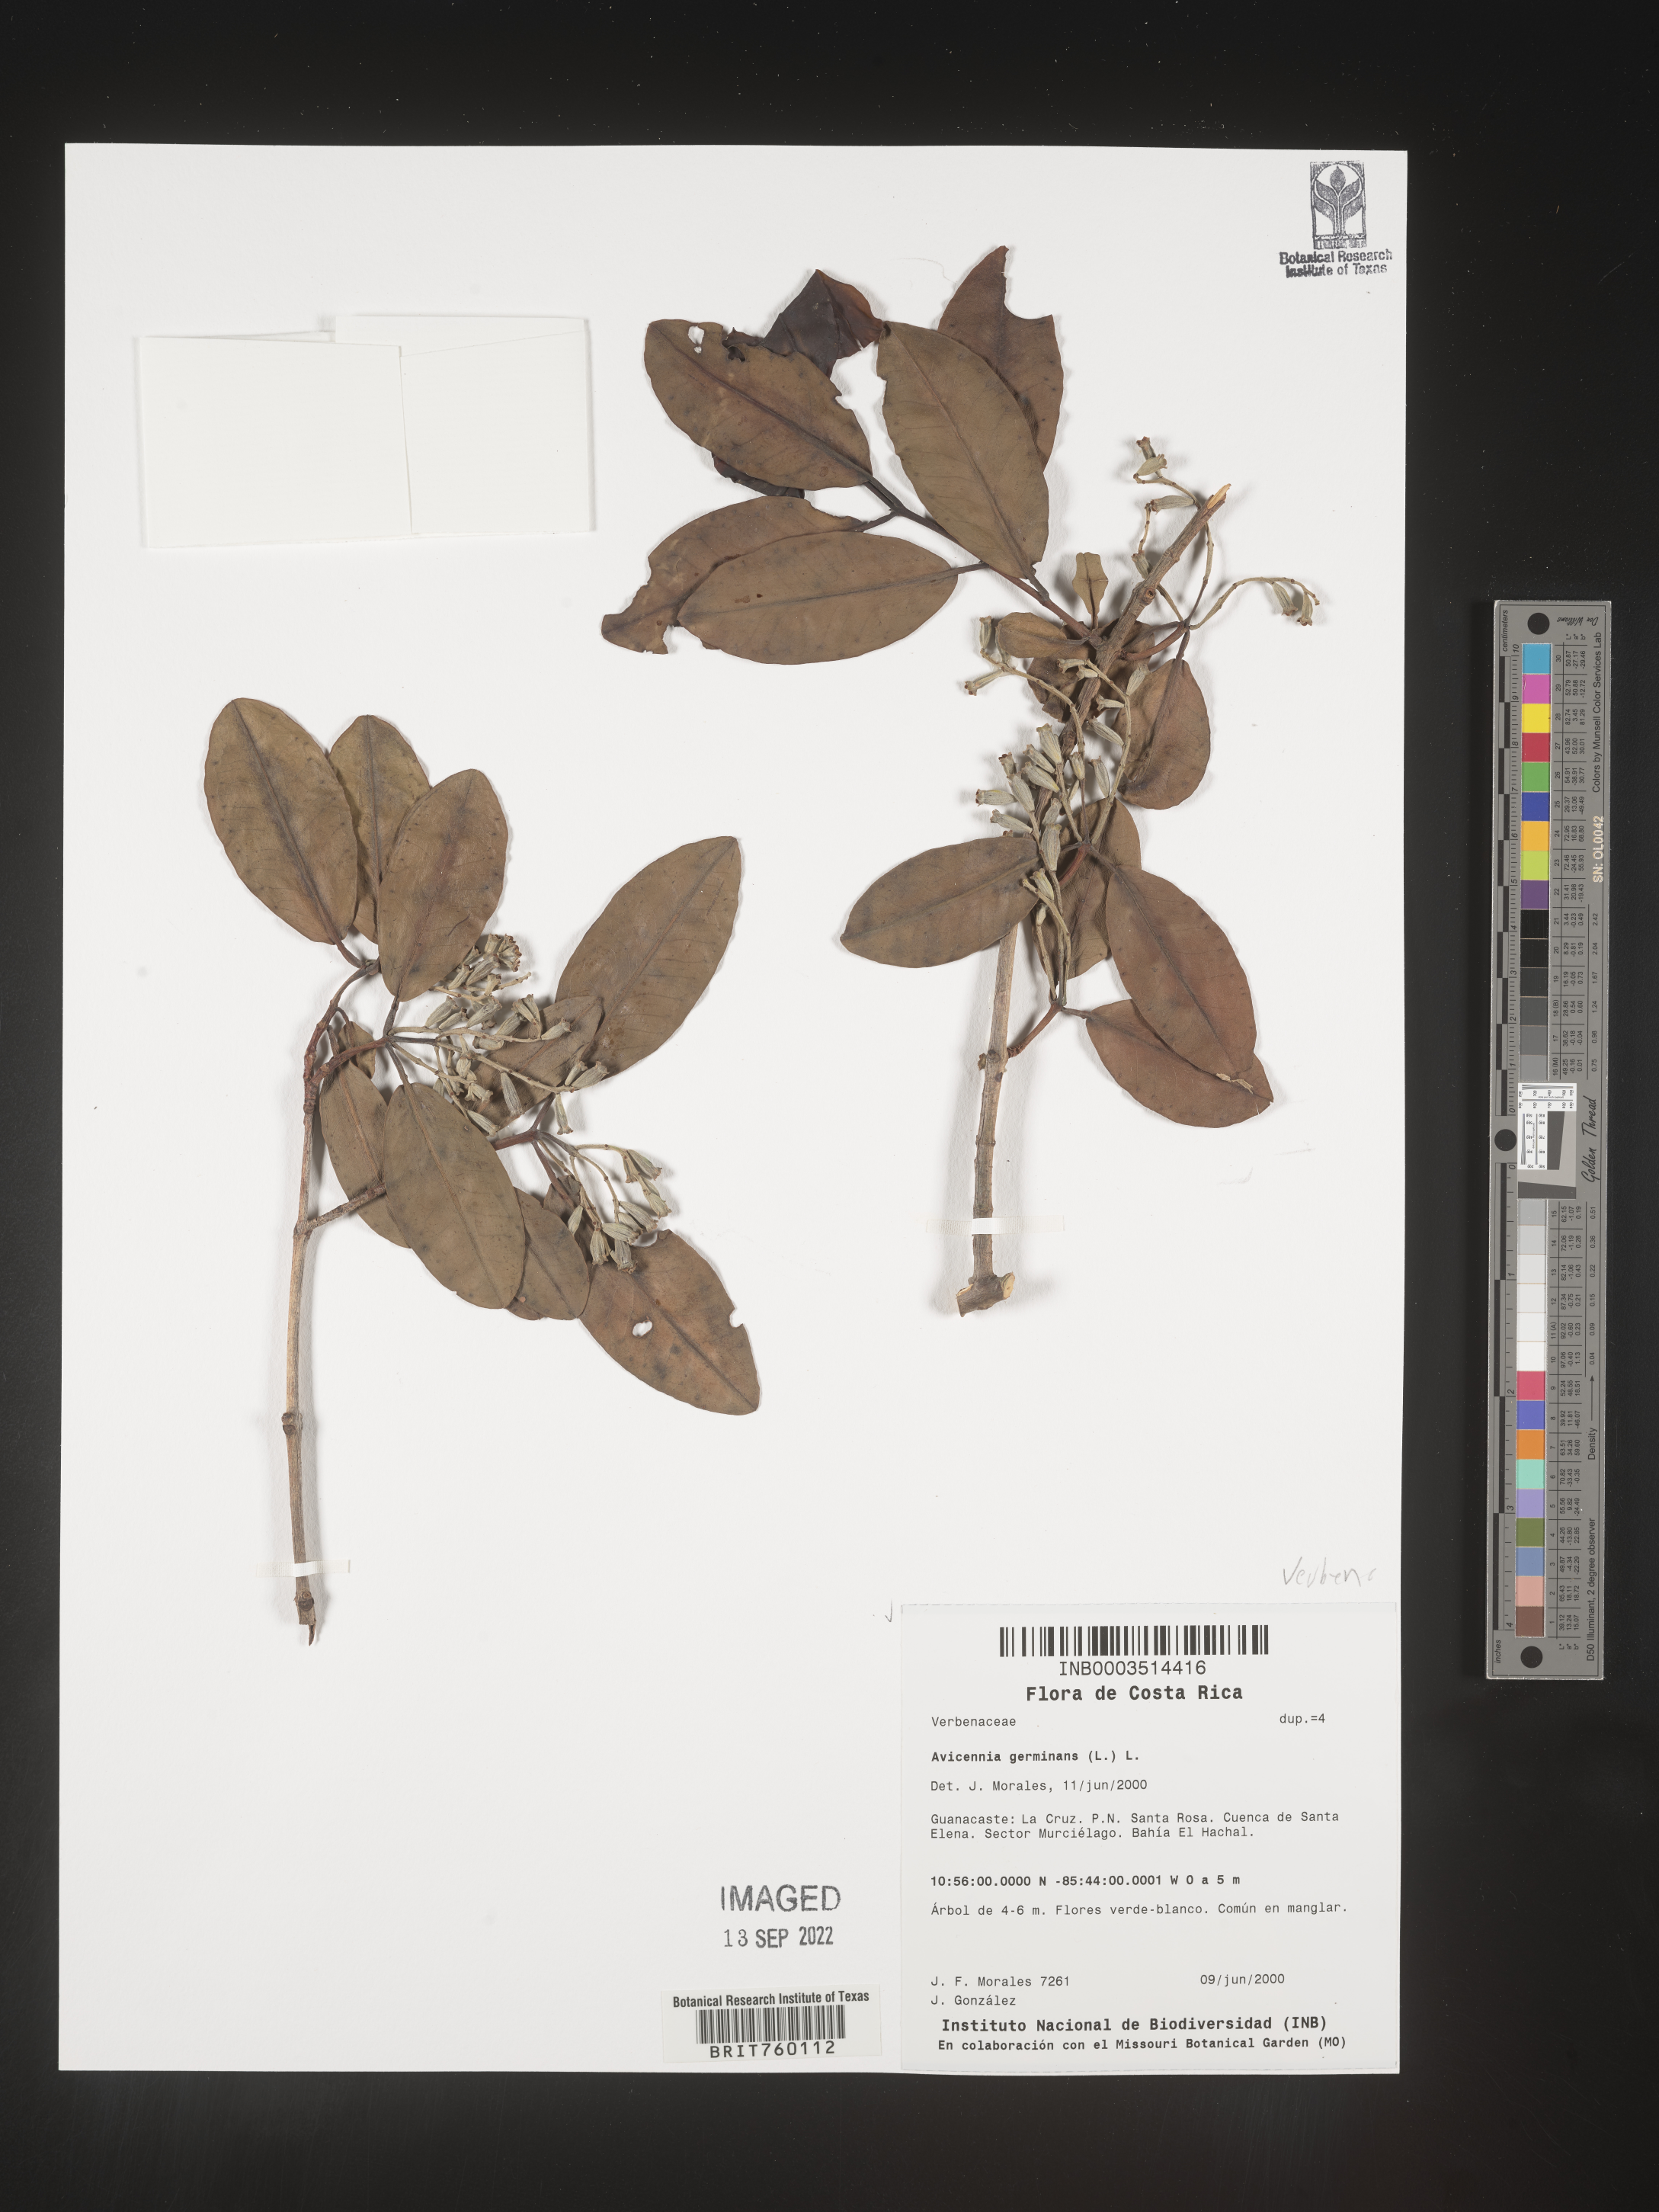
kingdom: Plantae
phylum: Tracheophyta
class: Magnoliopsida
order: Lamiales
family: Acanthaceae
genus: Avicennia
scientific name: Avicennia
